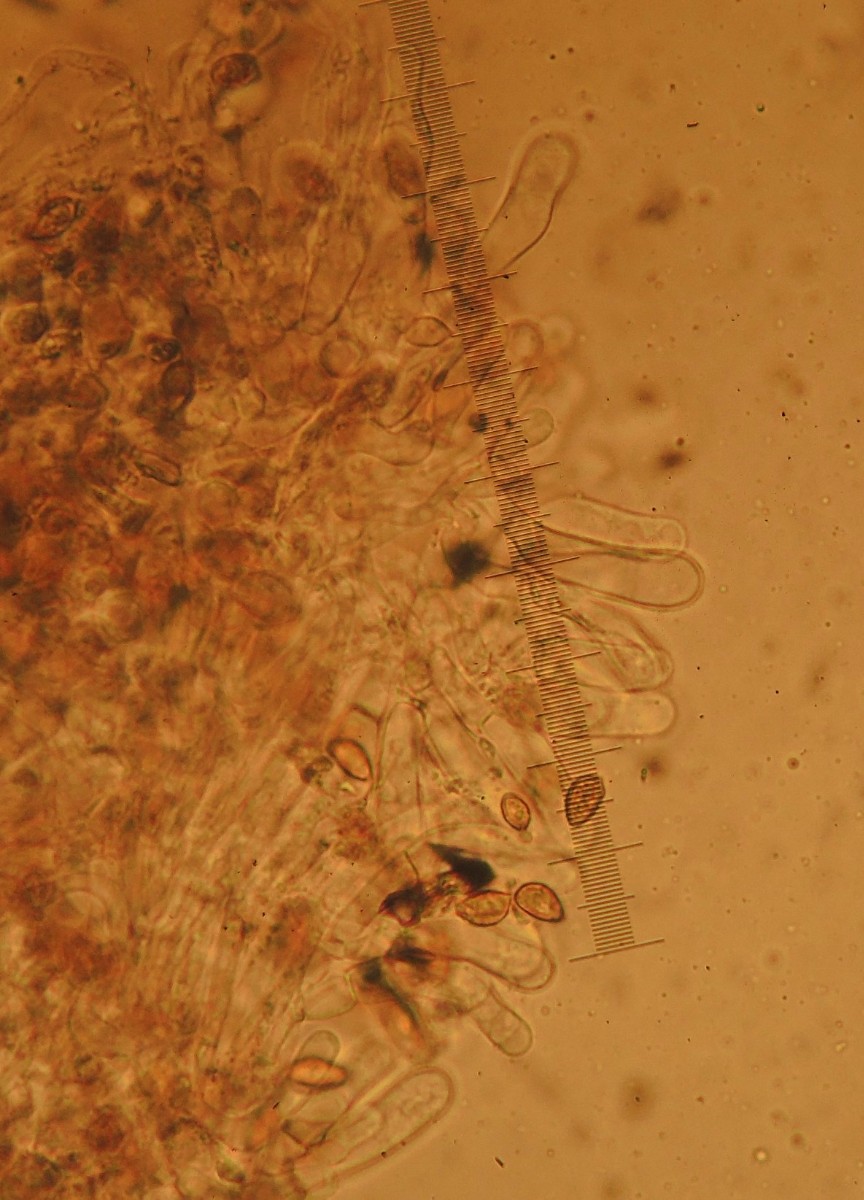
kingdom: Fungi
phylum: Basidiomycota
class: Agaricomycetes
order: Agaricales
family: Hymenogastraceae
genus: Hebeloma
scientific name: Hebeloma birrus
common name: rodslående tåreblad
